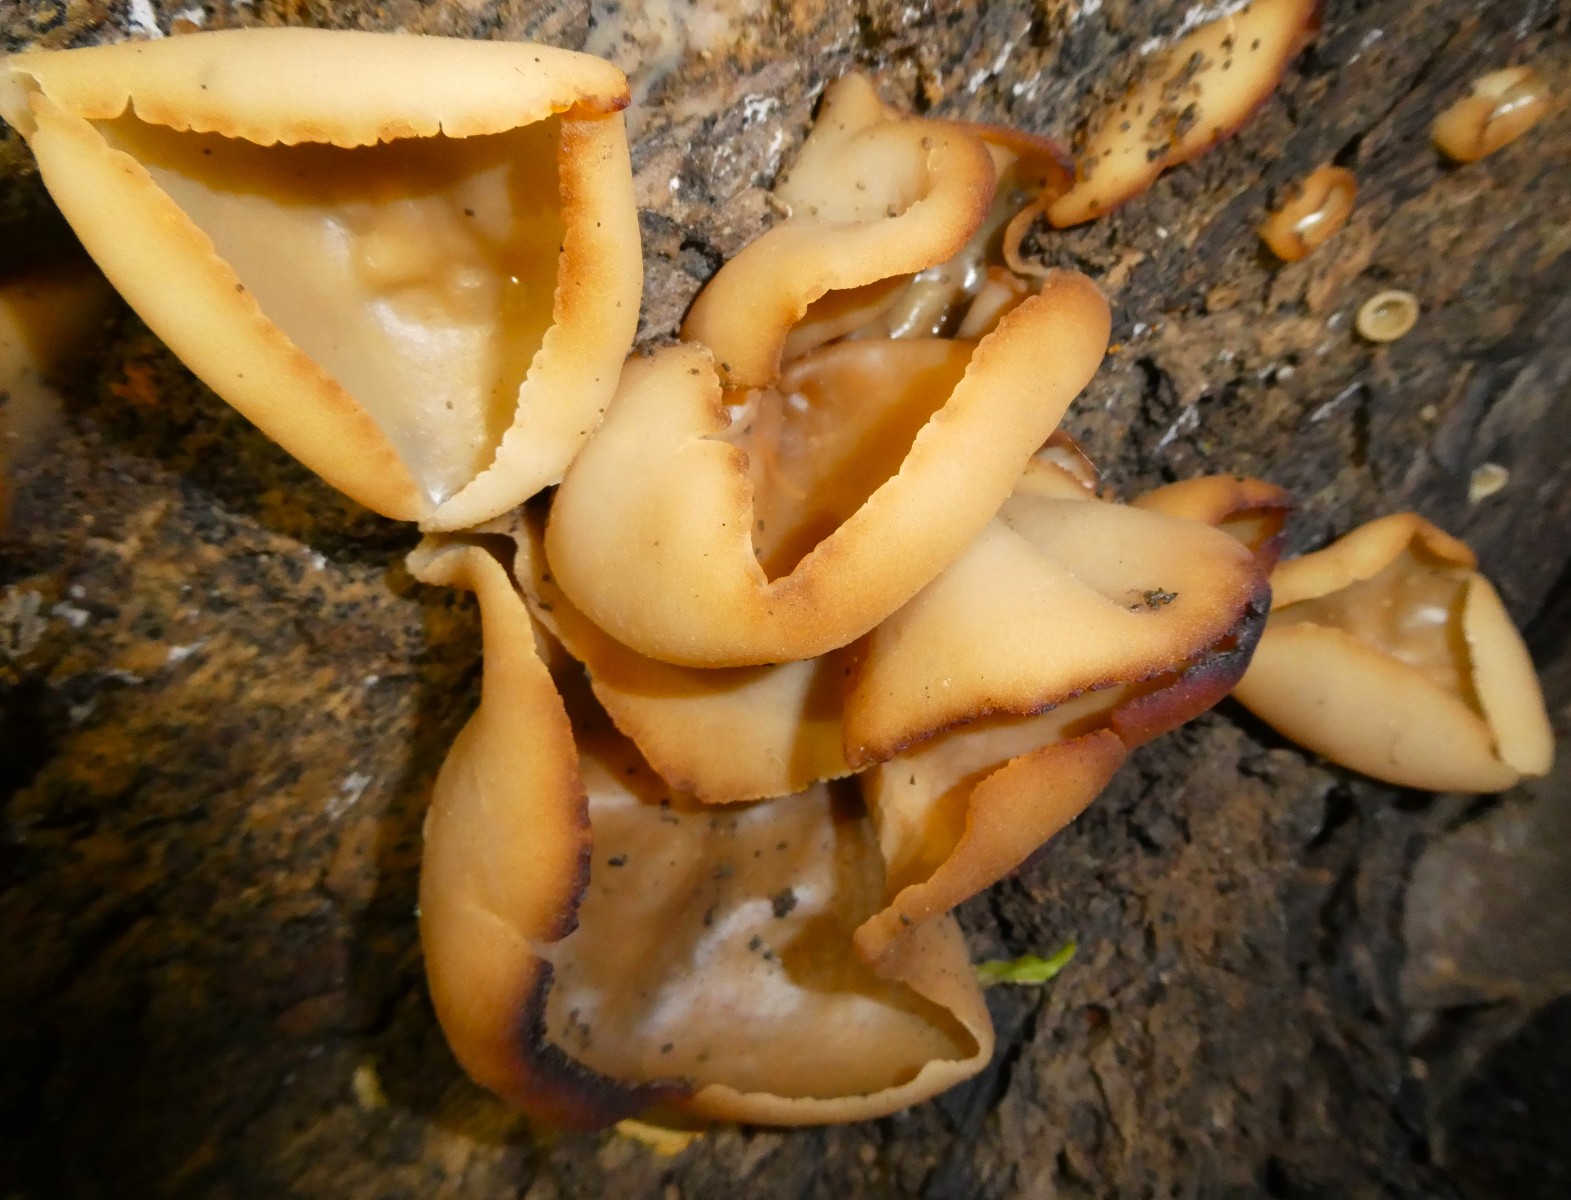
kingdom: Fungi
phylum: Ascomycota
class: Pezizomycetes
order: Pezizales
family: Pezizaceae
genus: Peziza
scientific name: Peziza varia
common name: Ved-bægersvamp
